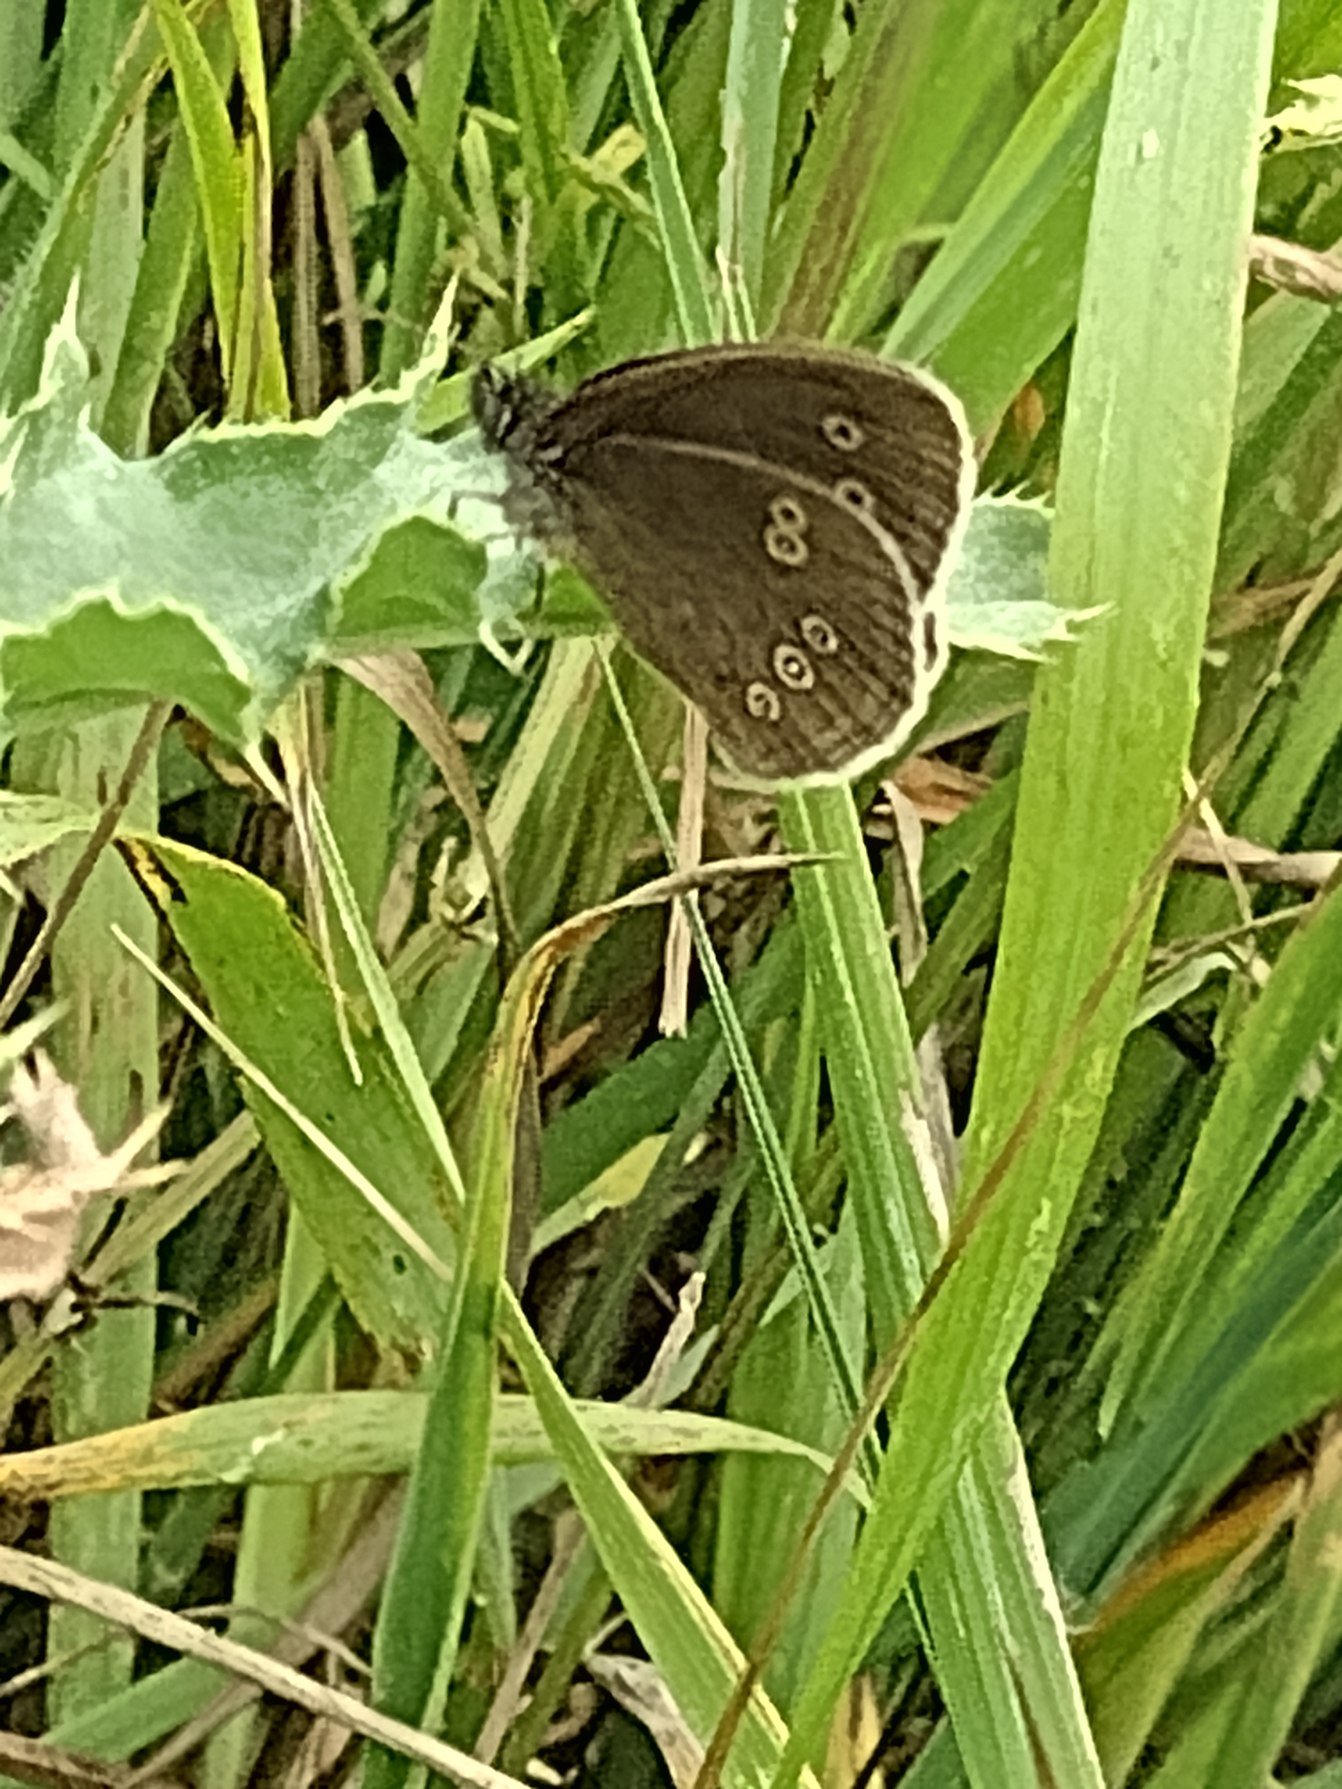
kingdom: Animalia
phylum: Arthropoda
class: Insecta
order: Lepidoptera
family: Nymphalidae
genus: Aphantopus
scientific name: Aphantopus hyperantus
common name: Engrandøje
